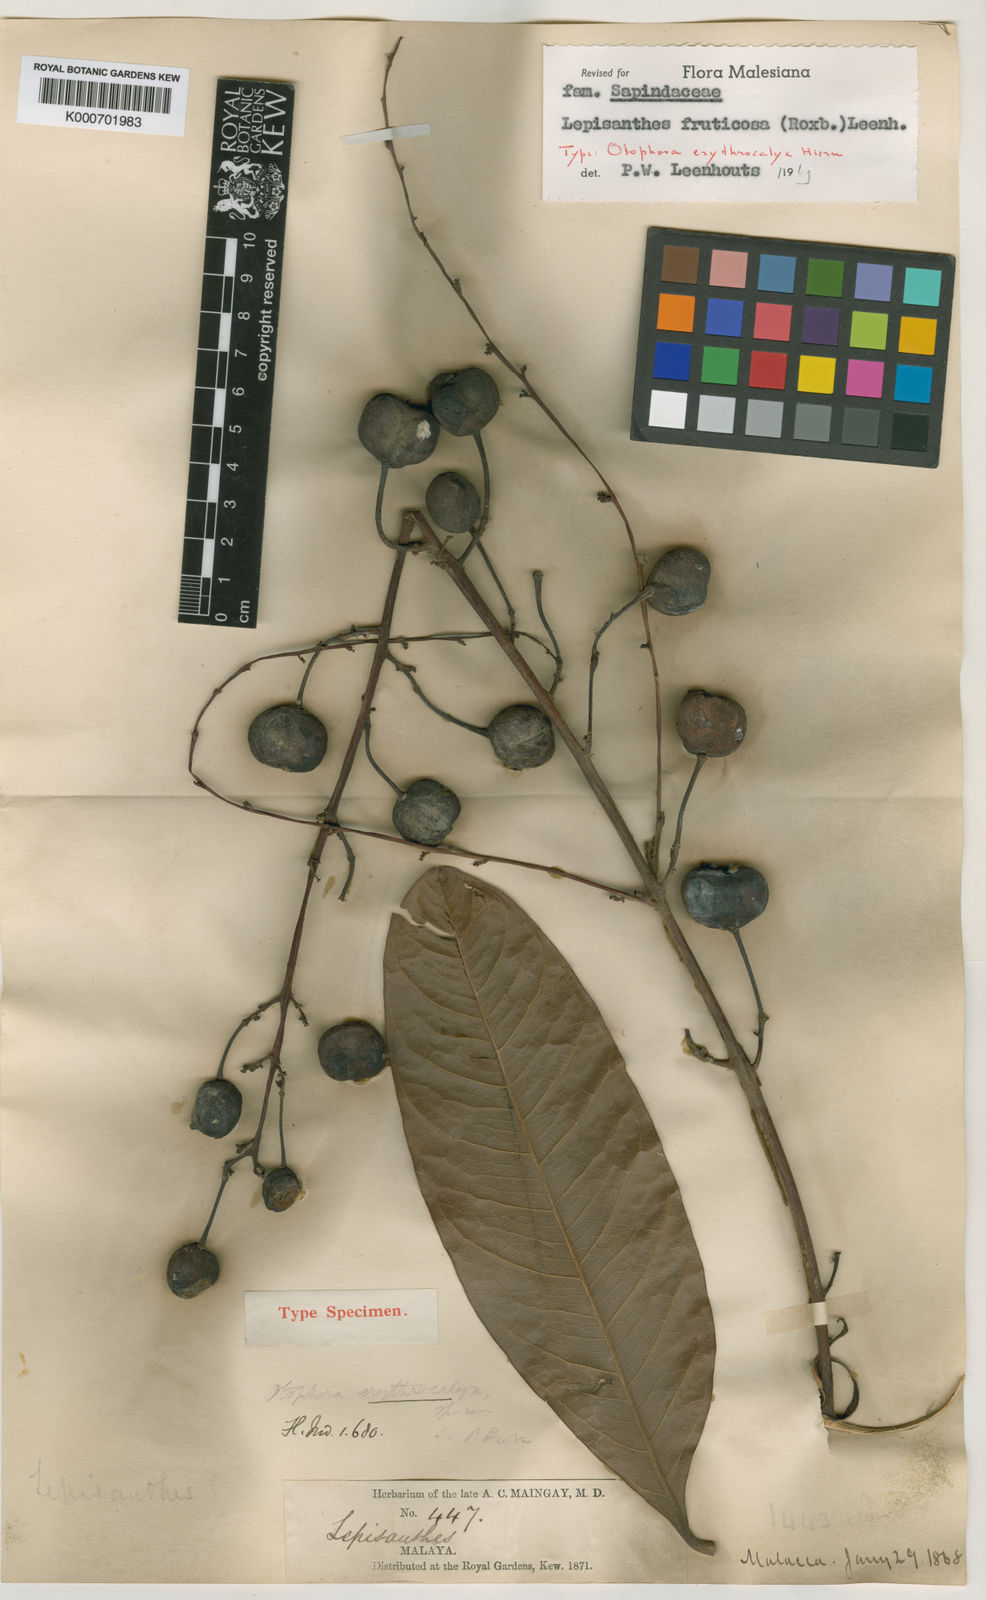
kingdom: Plantae
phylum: Tracheophyta
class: Magnoliopsida
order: Sapindales
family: Sapindaceae
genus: Lepisanthes
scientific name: Lepisanthes fruticosa
